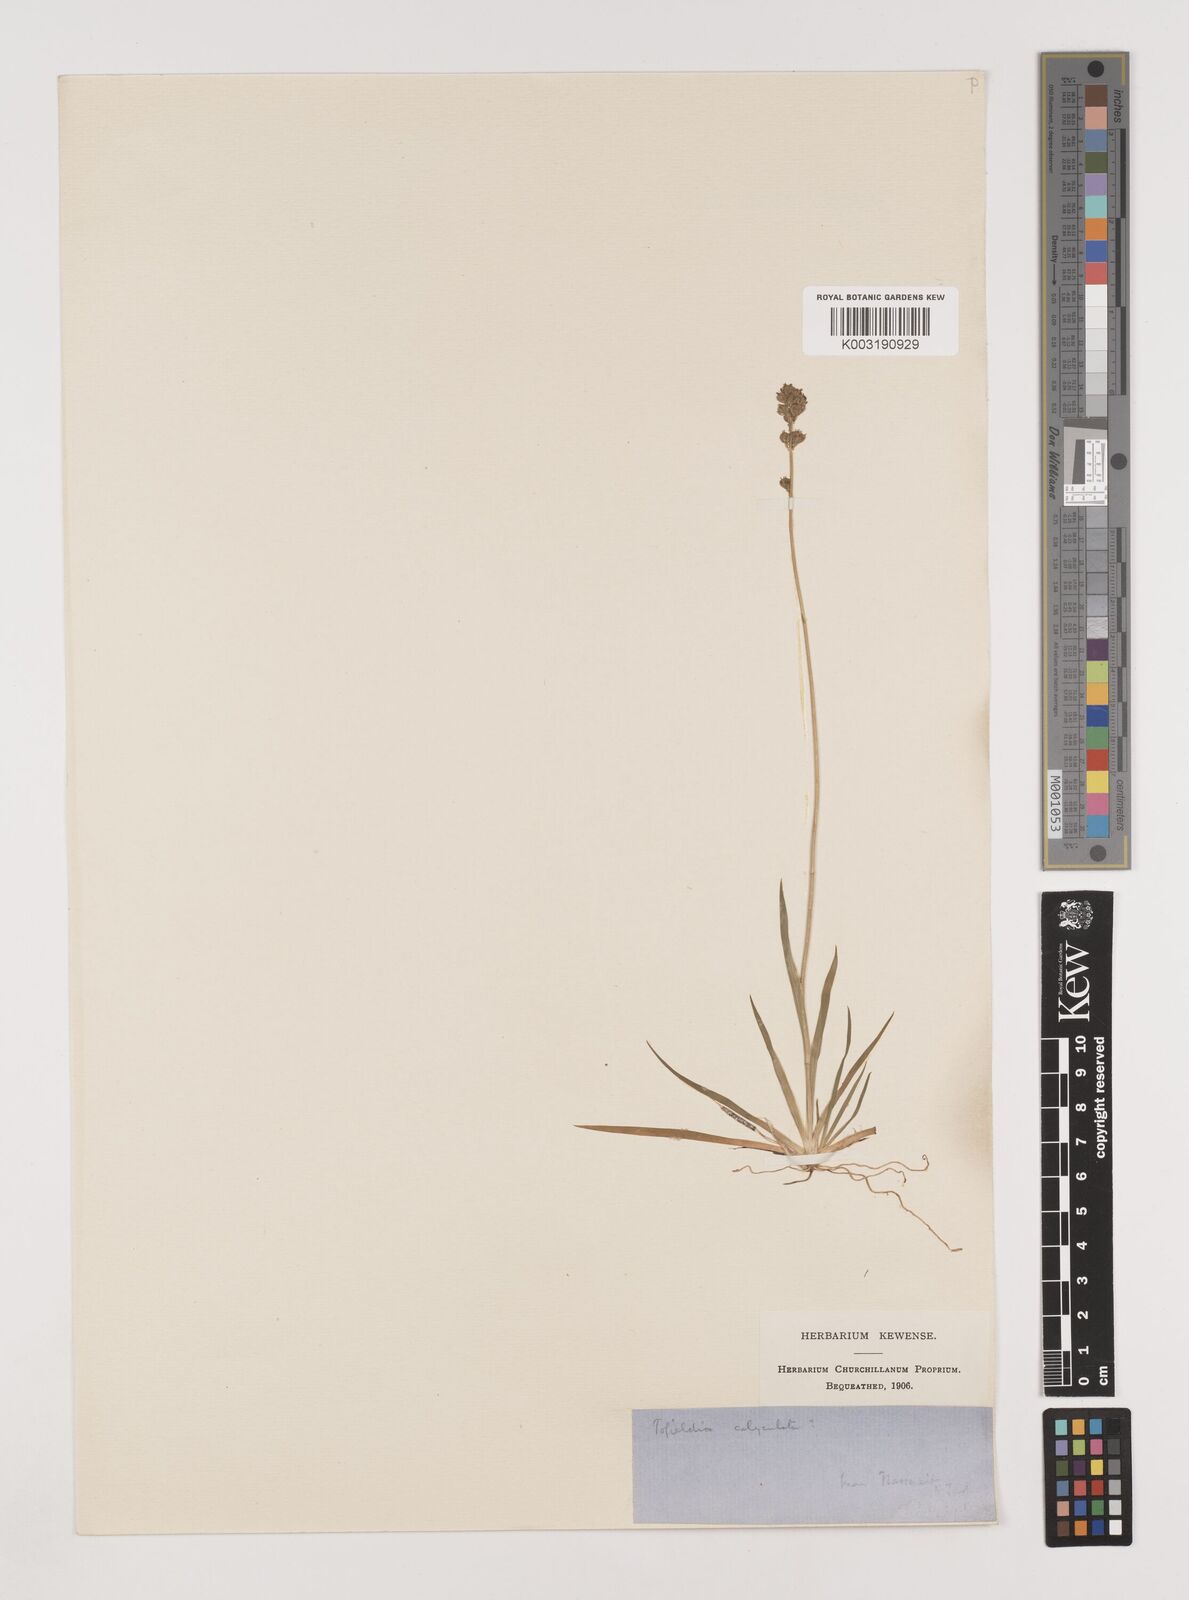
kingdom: Plantae
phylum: Tracheophyta
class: Liliopsida
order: Alismatales
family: Tofieldiaceae
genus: Tofieldia
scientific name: Tofieldia calyculata
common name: German-asphodel
